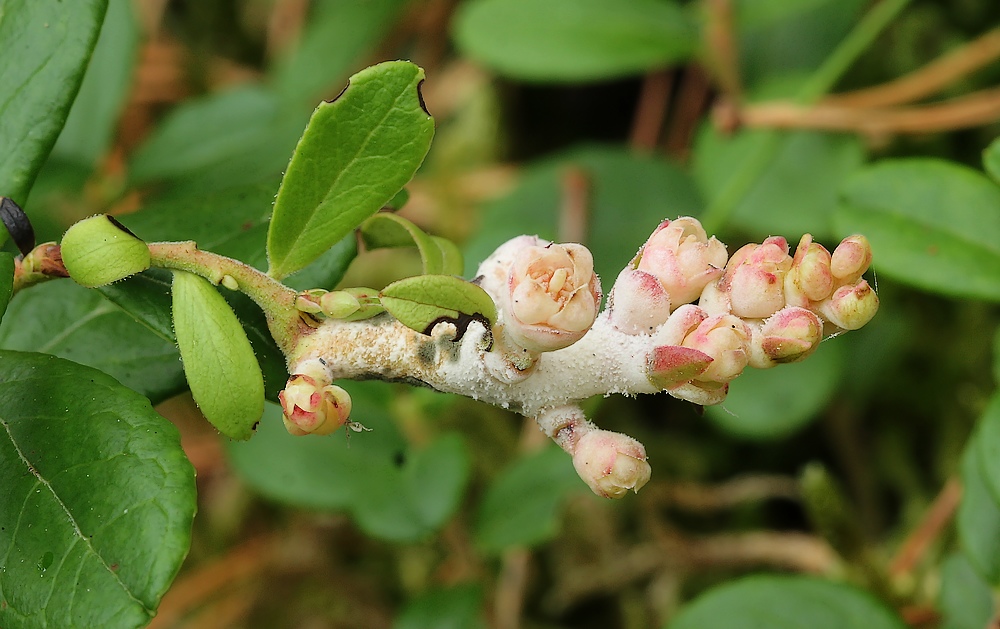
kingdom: Fungi
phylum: Basidiomycota
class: Exobasidiomycetes
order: Exobasidiales
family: Exobasidiaceae
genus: Exobasidium
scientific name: Exobasidium vaccinii
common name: tyttebærblad-bøllesvamp
